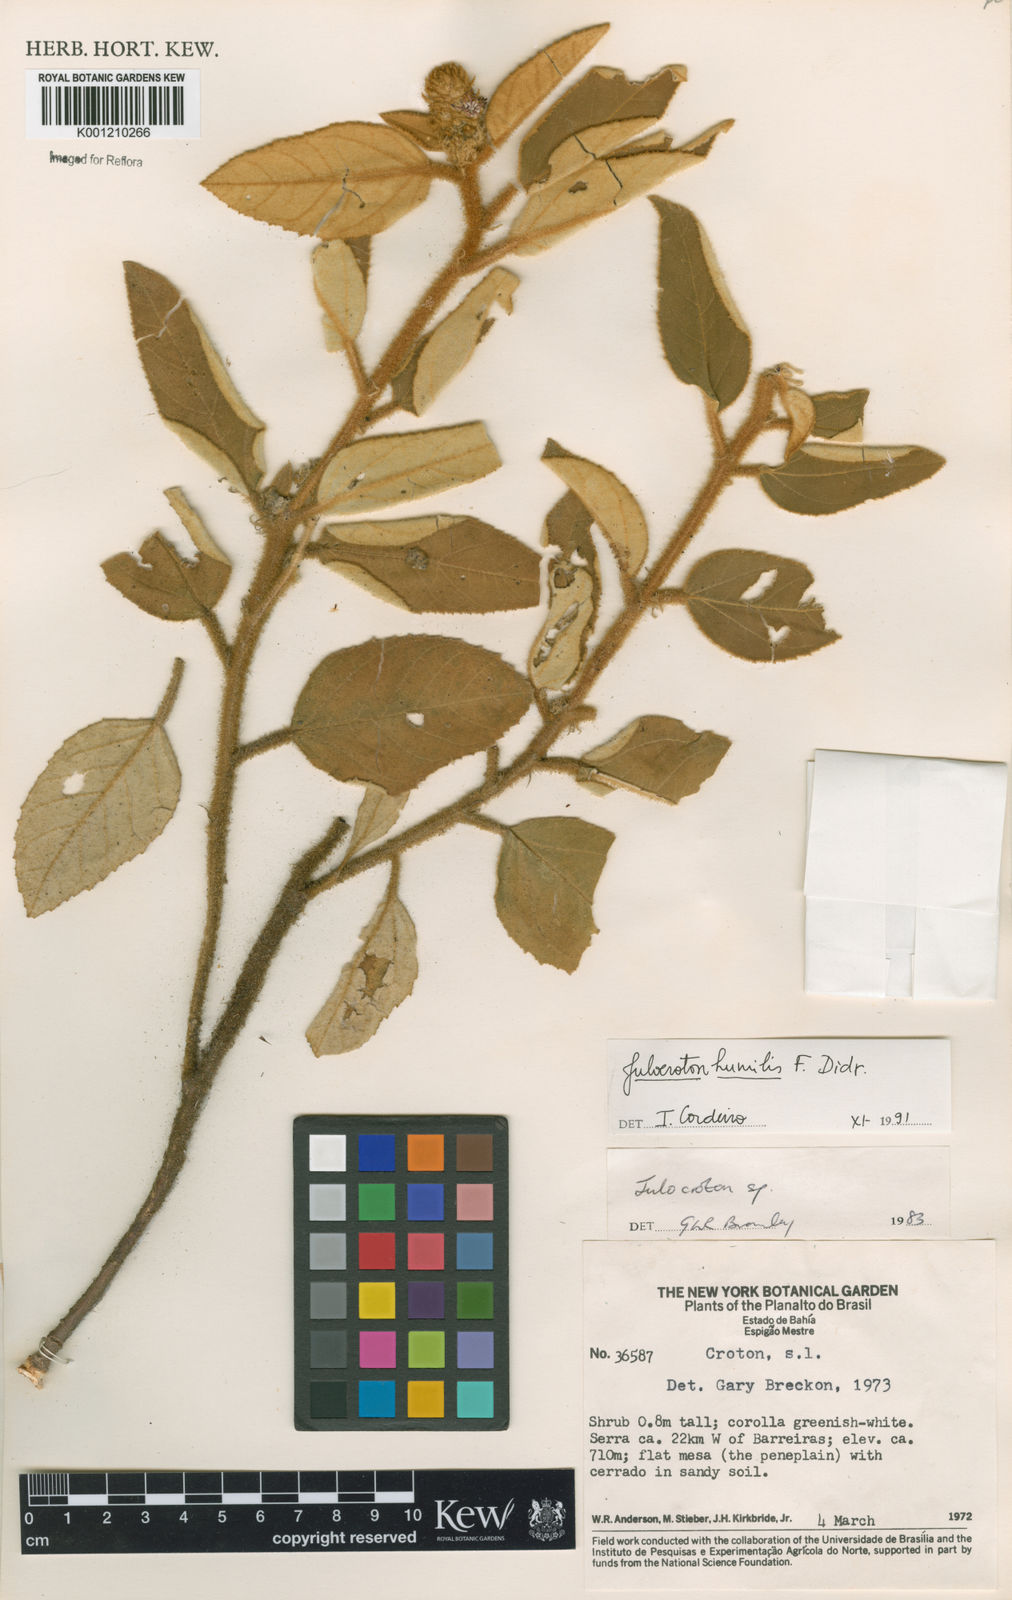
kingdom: Plantae
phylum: Tracheophyta
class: Magnoliopsida
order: Malpighiales
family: Euphorbiaceae
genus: Croton
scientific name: Croton solanaceus
